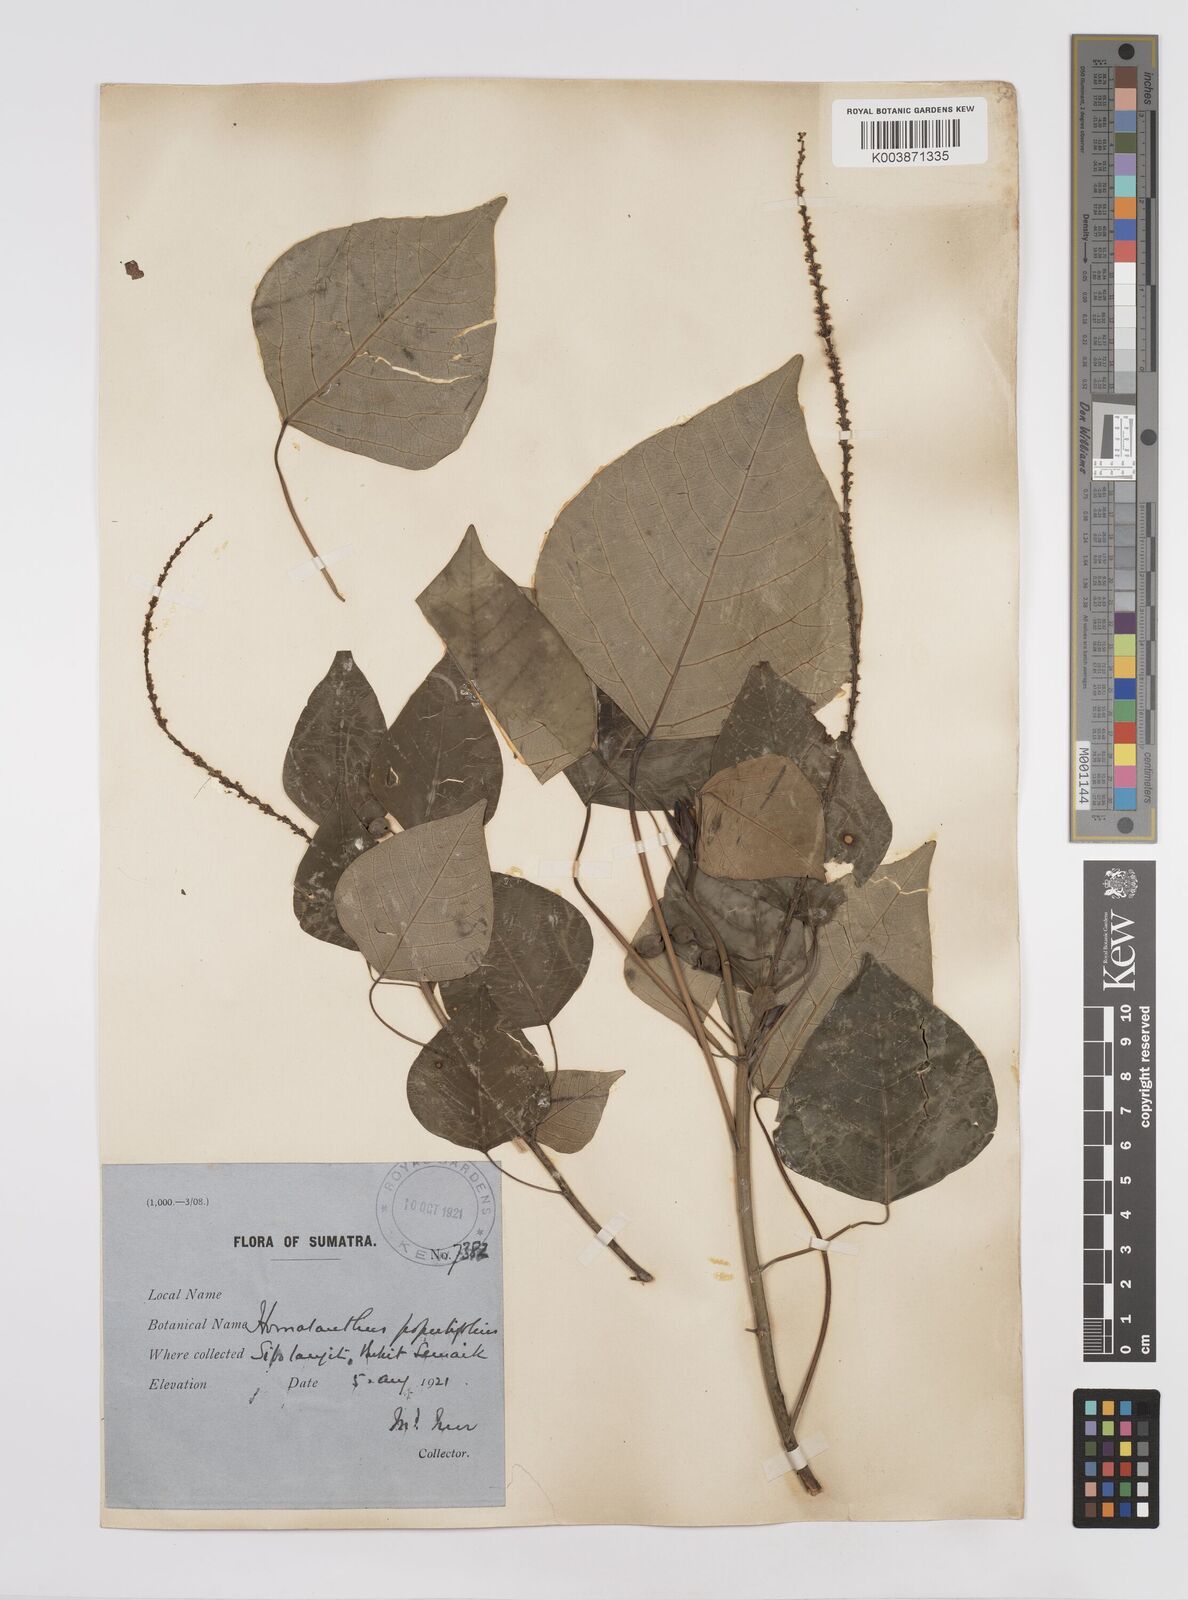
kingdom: Plantae
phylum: Tracheophyta
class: Magnoliopsida
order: Malpighiales
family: Euphorbiaceae
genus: Homalanthus
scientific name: Homalanthus populneus
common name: Spurge
